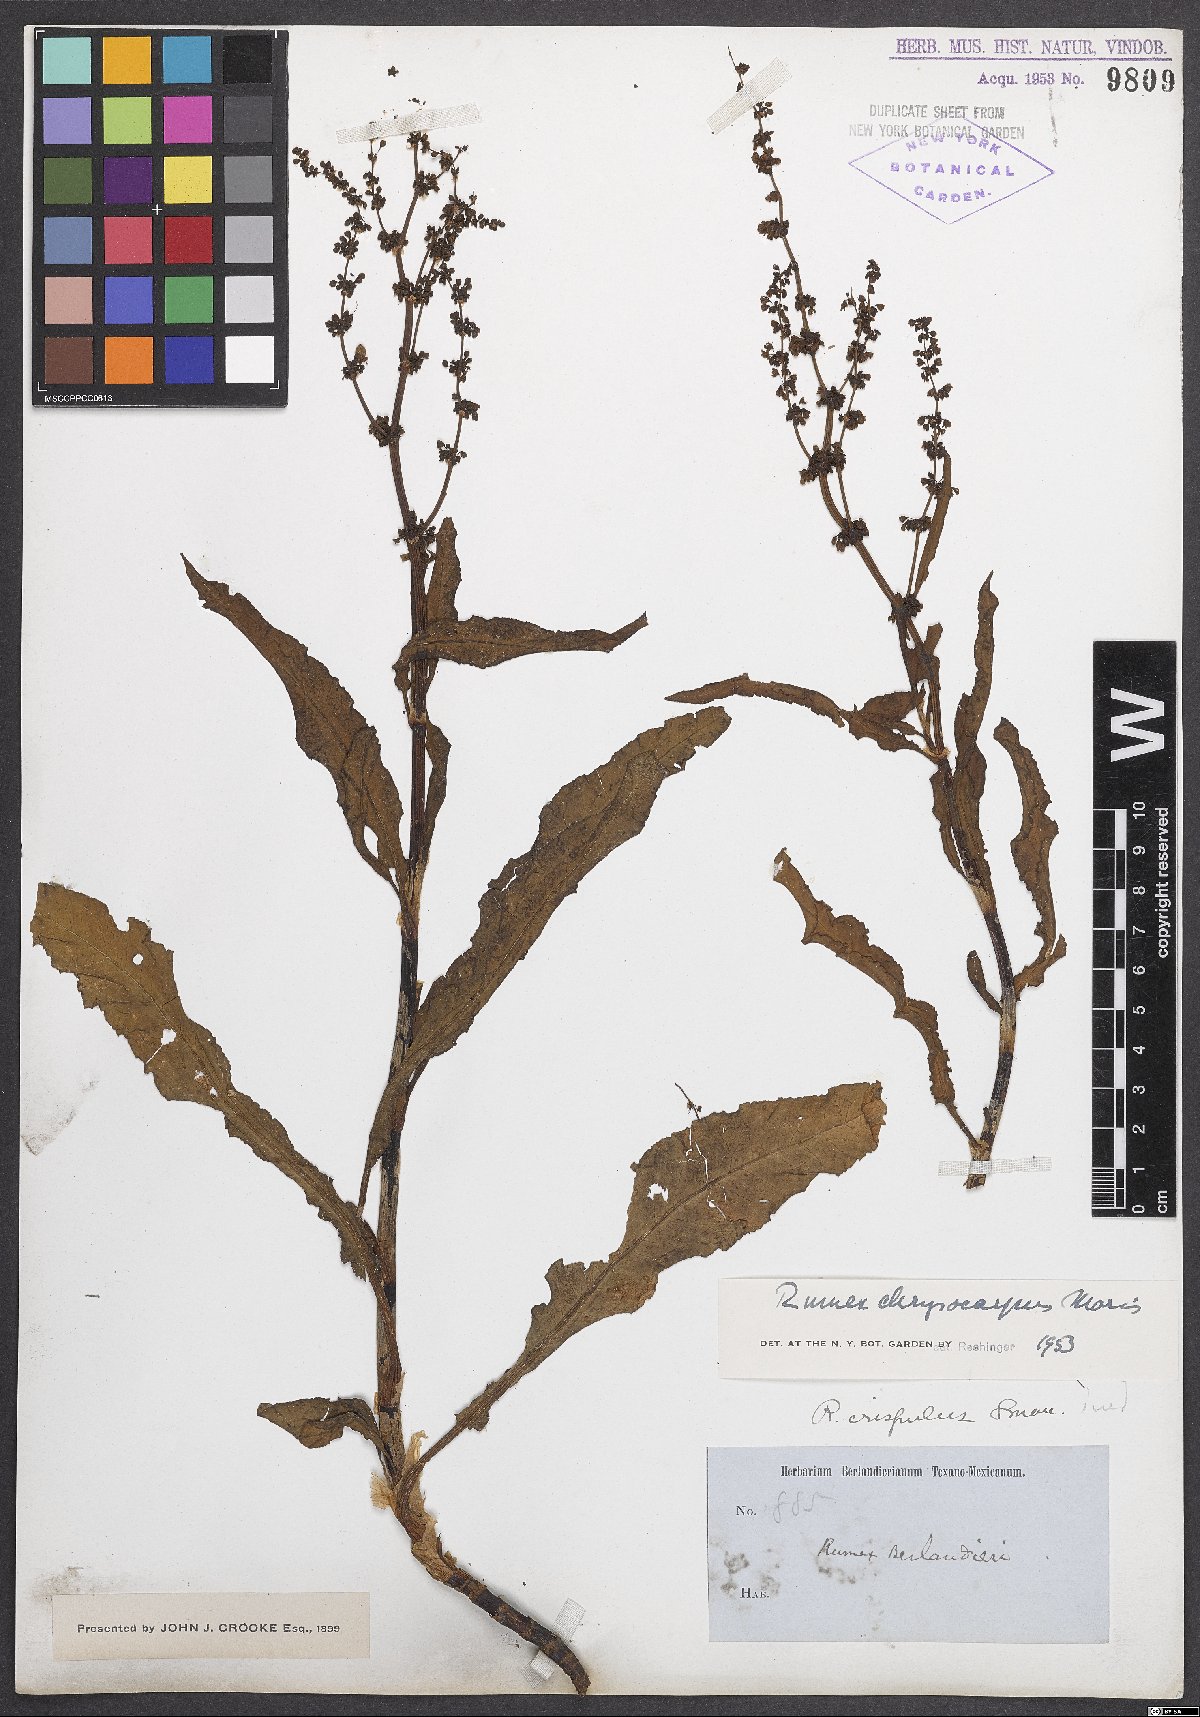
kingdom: Plantae
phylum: Tracheophyta
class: Magnoliopsida
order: Caryophyllales
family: Polygonaceae
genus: Rumex
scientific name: Rumex chrysocarpos
